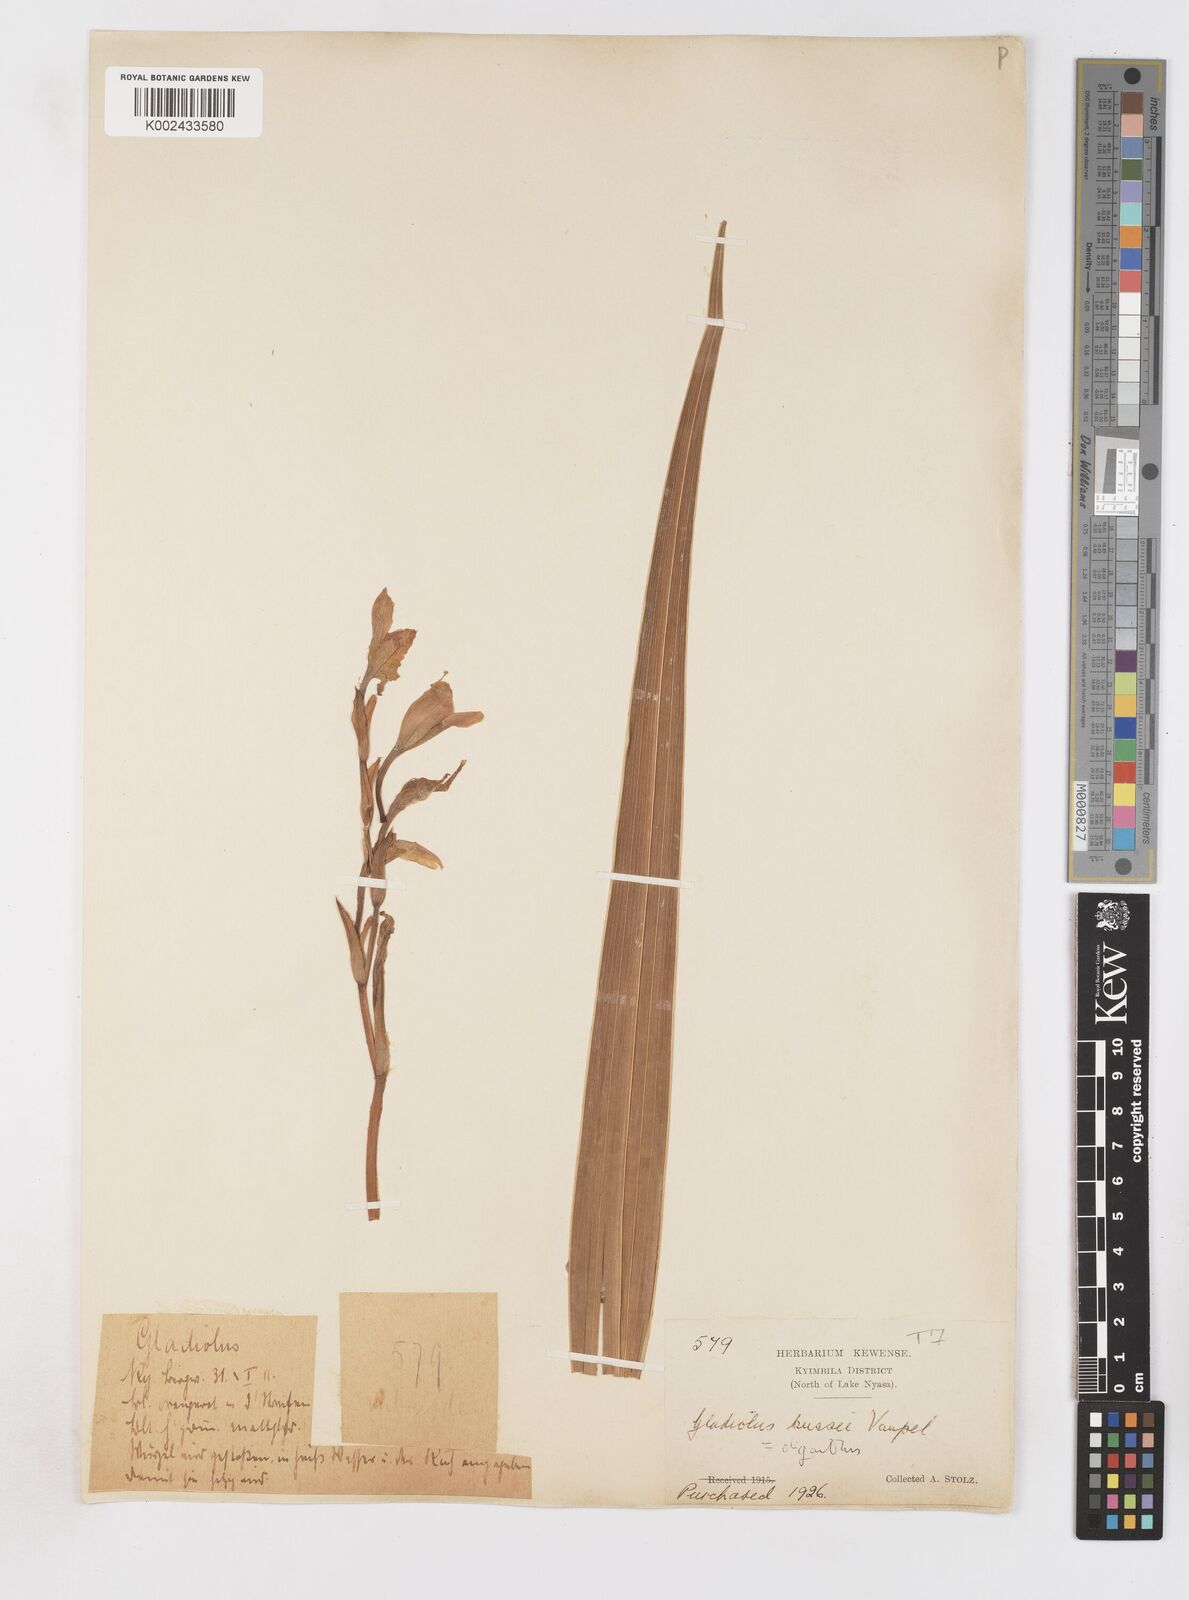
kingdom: Plantae
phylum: Tracheophyta
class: Liliopsida
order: Asparagales
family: Iridaceae
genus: Gladiolus
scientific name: Gladiolus oliganthus
